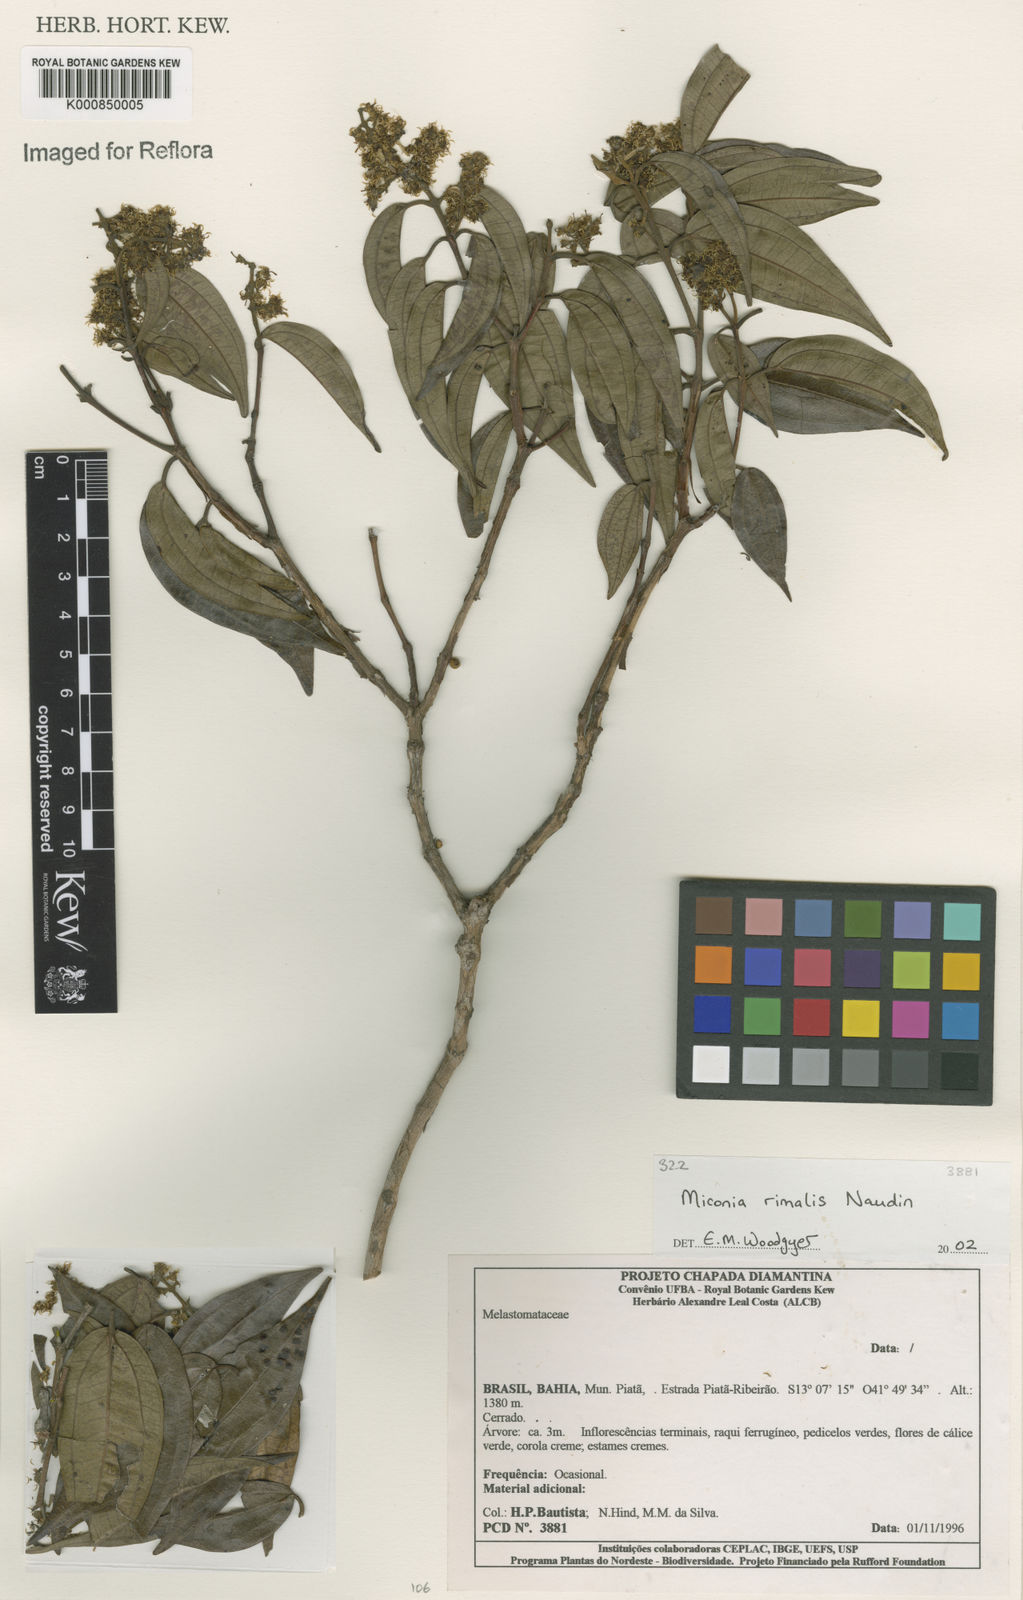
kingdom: Plantae
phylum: Tracheophyta
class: Magnoliopsida
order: Myrtales
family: Melastomataceae
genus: Miconia
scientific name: Miconia
